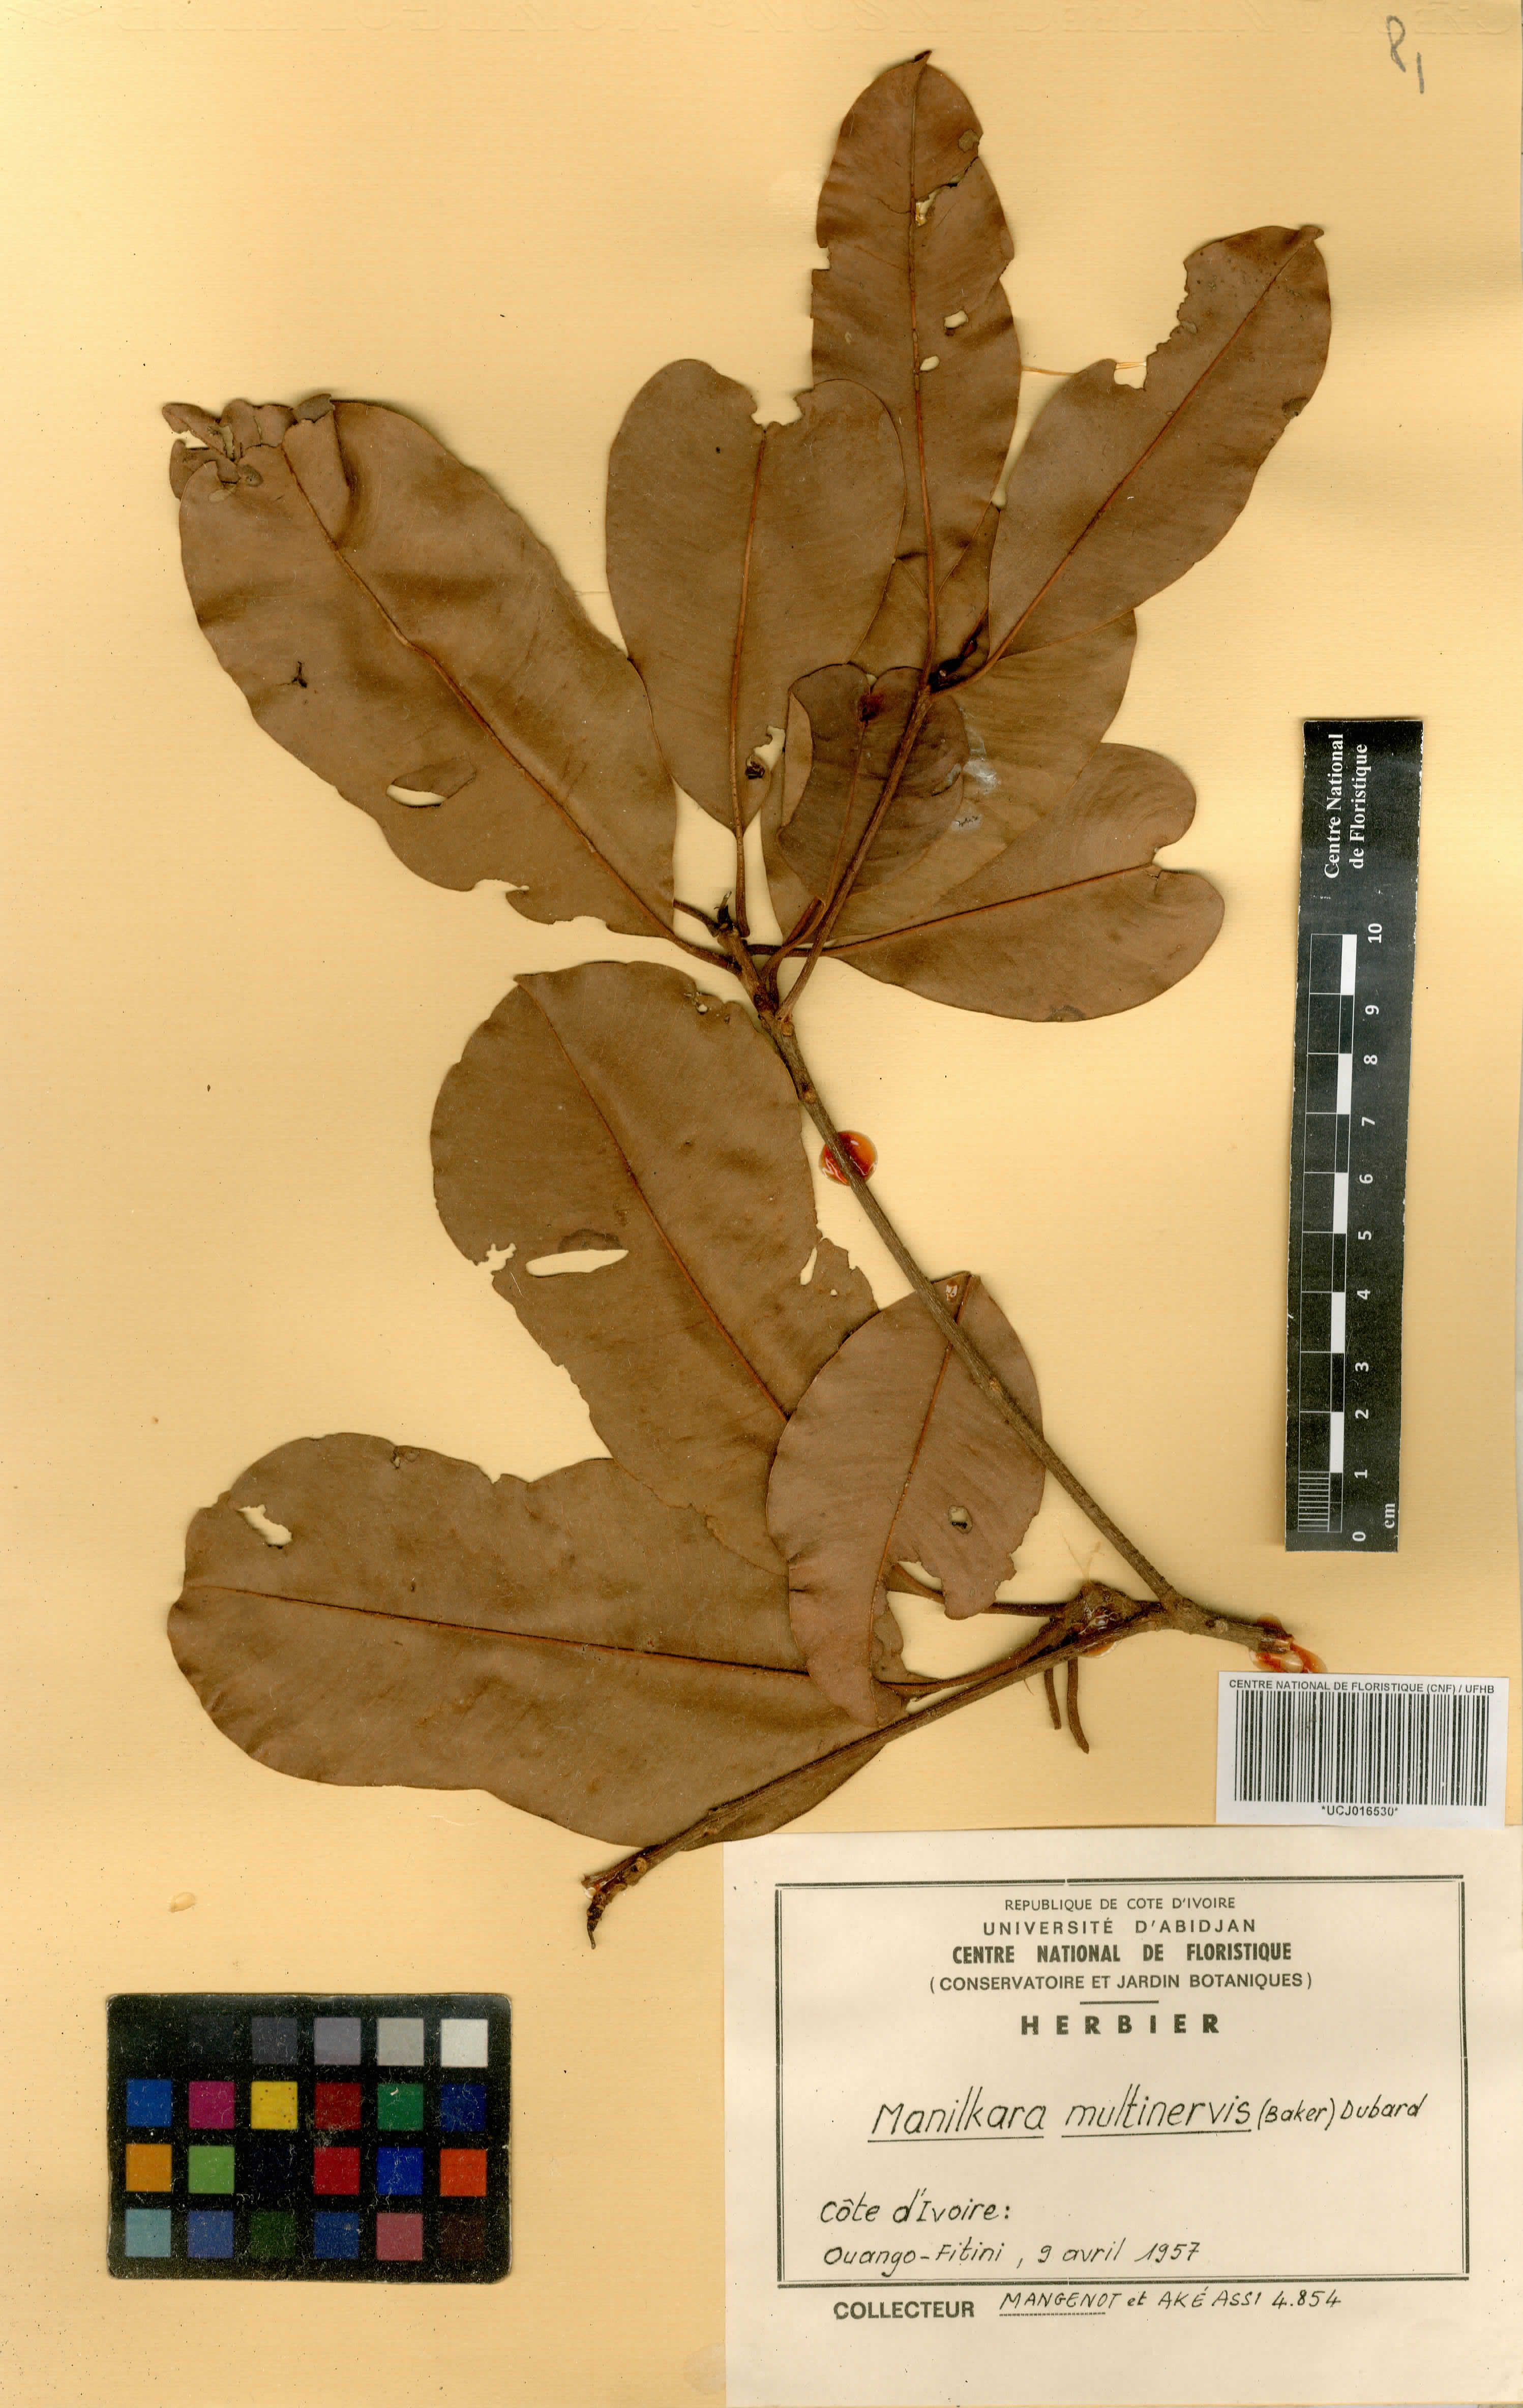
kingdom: Plantae
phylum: Tracheophyta
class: Magnoliopsida
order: Ericales
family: Sapotaceae
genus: Manilkara
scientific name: Manilkara obovata
